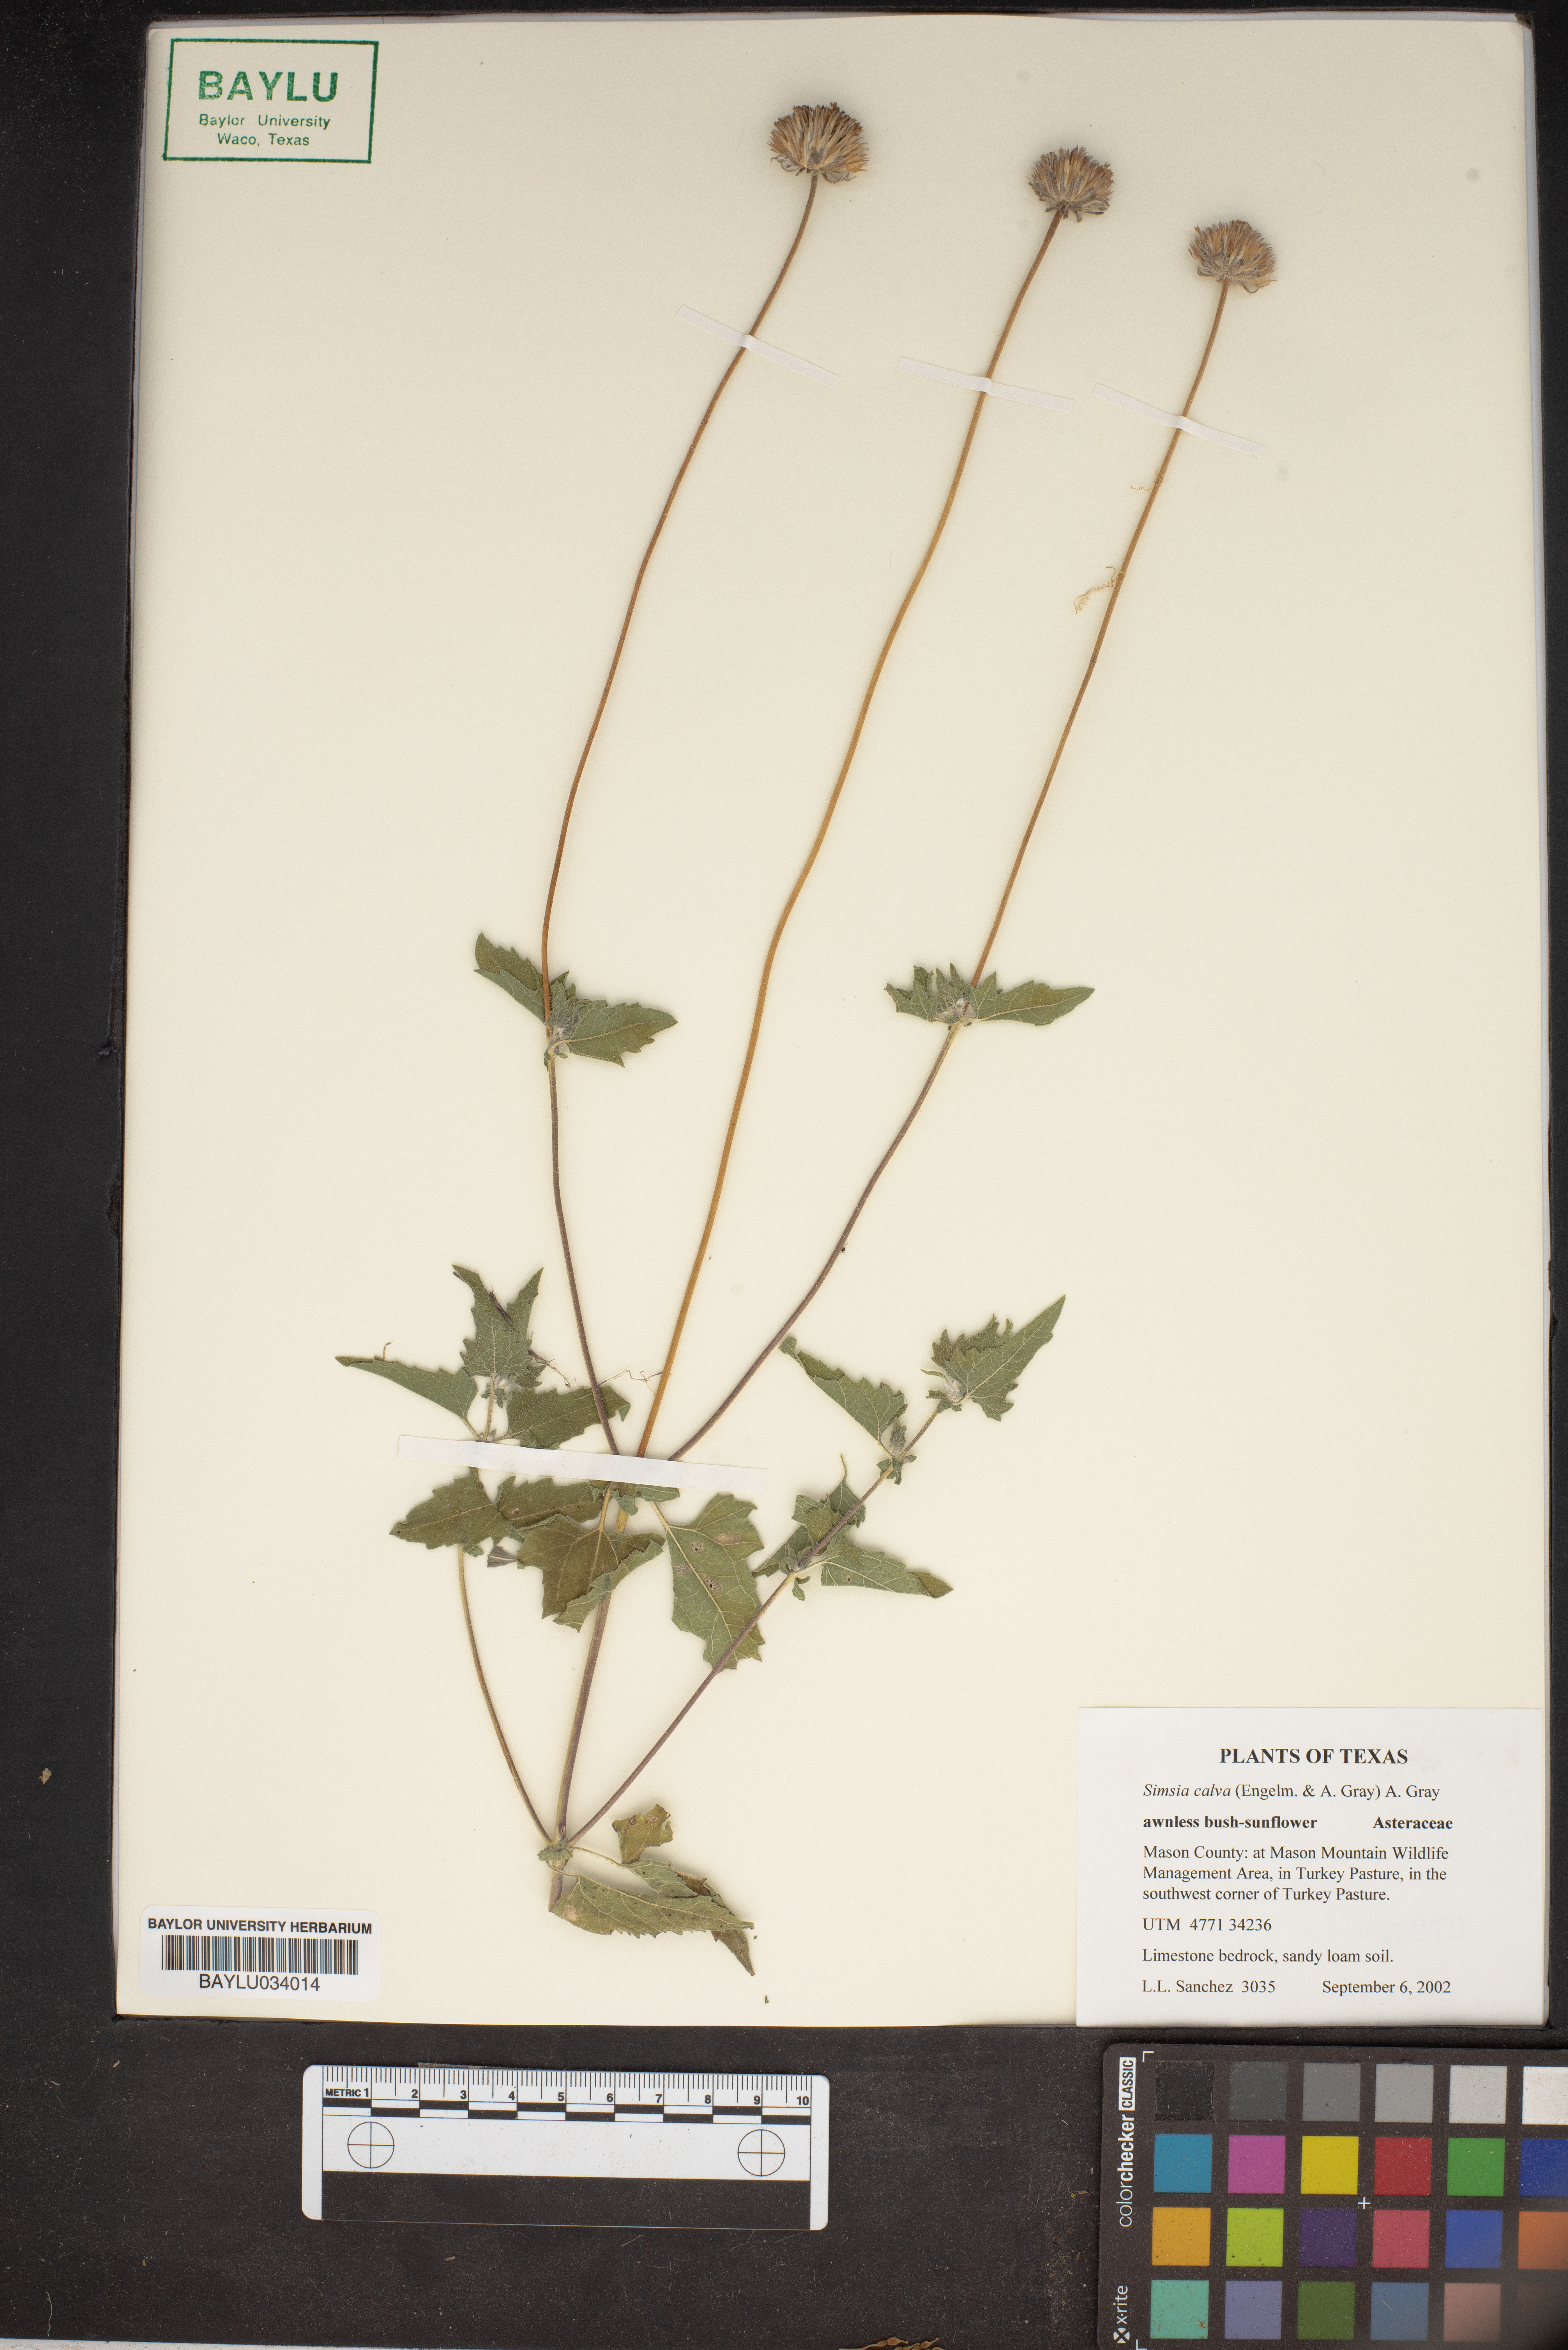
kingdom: Plantae
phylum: Tracheophyta
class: Magnoliopsida
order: Asterales
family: Asteraceae
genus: Simsia
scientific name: Simsia calva
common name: Awnless bush-sunflower
